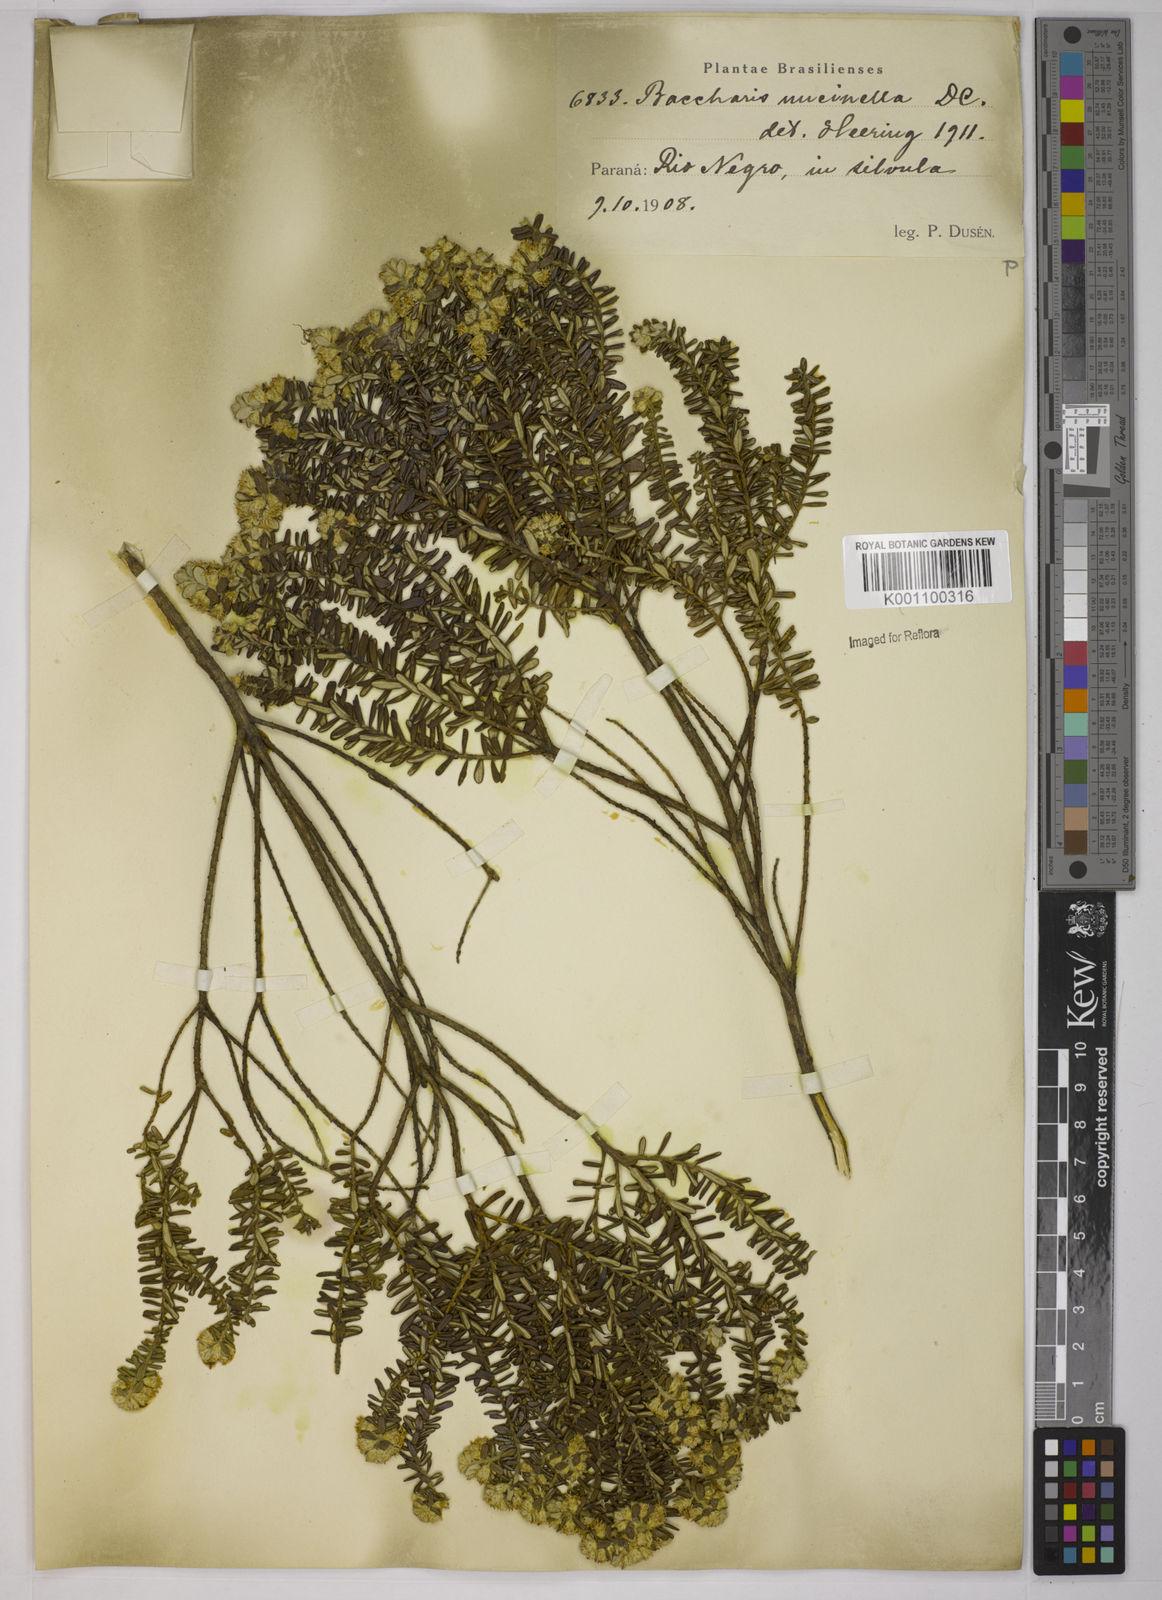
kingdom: Plantae
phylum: Tracheophyta
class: Magnoliopsida
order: Asterales
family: Asteraceae
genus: Baccharis
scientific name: Baccharis uncinella
